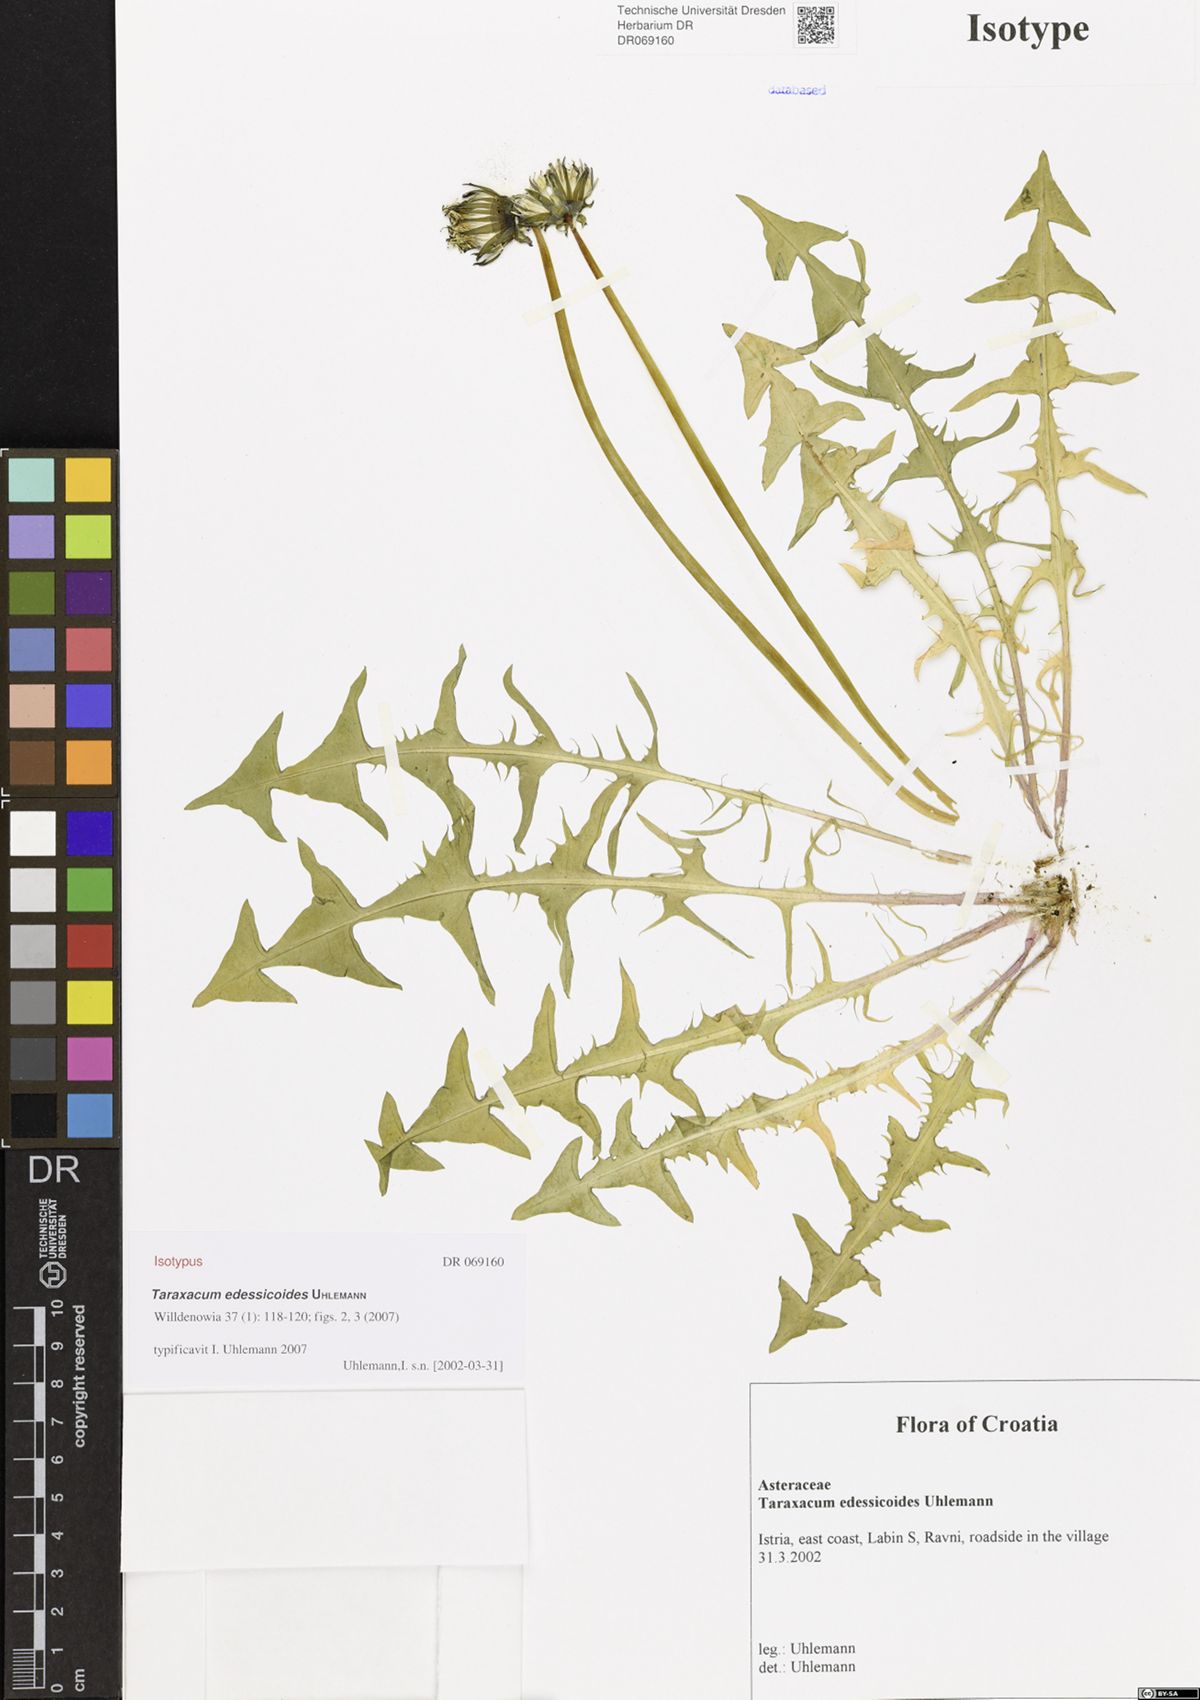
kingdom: Plantae
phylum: Tracheophyta
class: Magnoliopsida
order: Asterales
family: Asteraceae
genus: Taraxacum
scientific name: Taraxacum edessicoides
